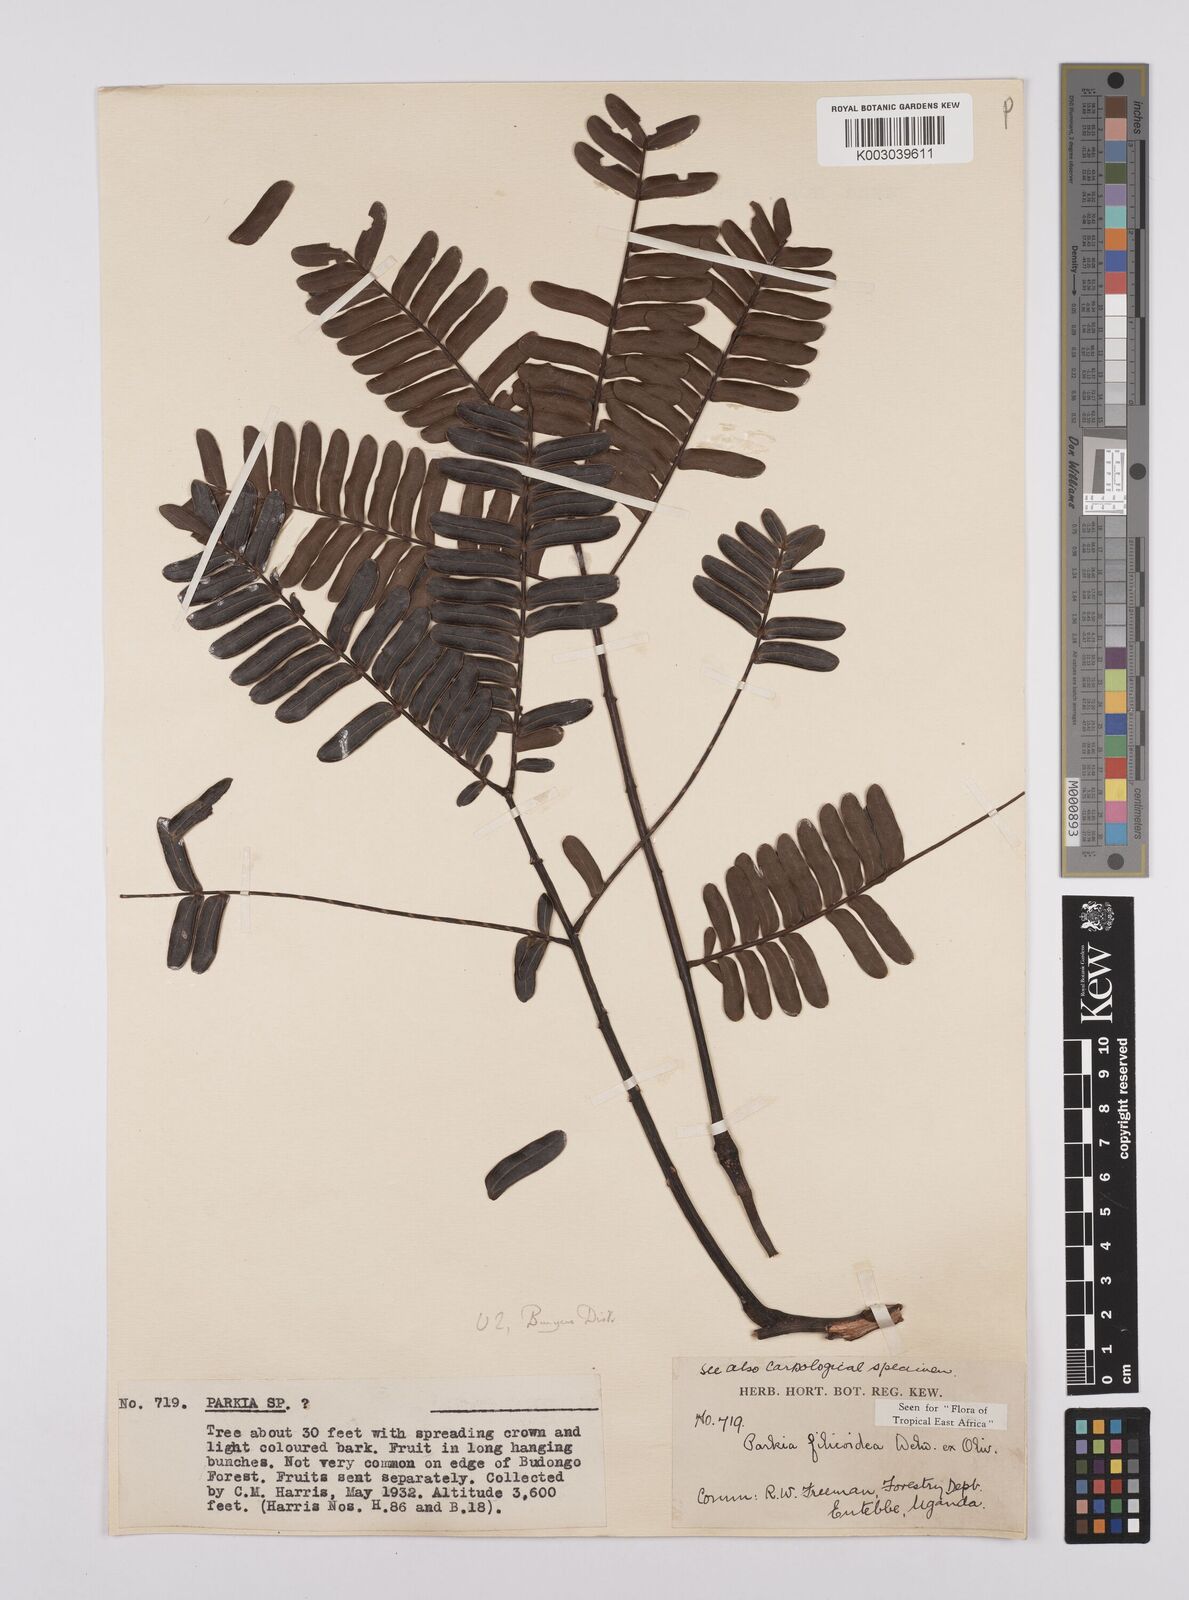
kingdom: Plantae
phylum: Tracheophyta
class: Magnoliopsida
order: Fabales
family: Fabaceae
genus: Parkia
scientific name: Parkia filicoidea
